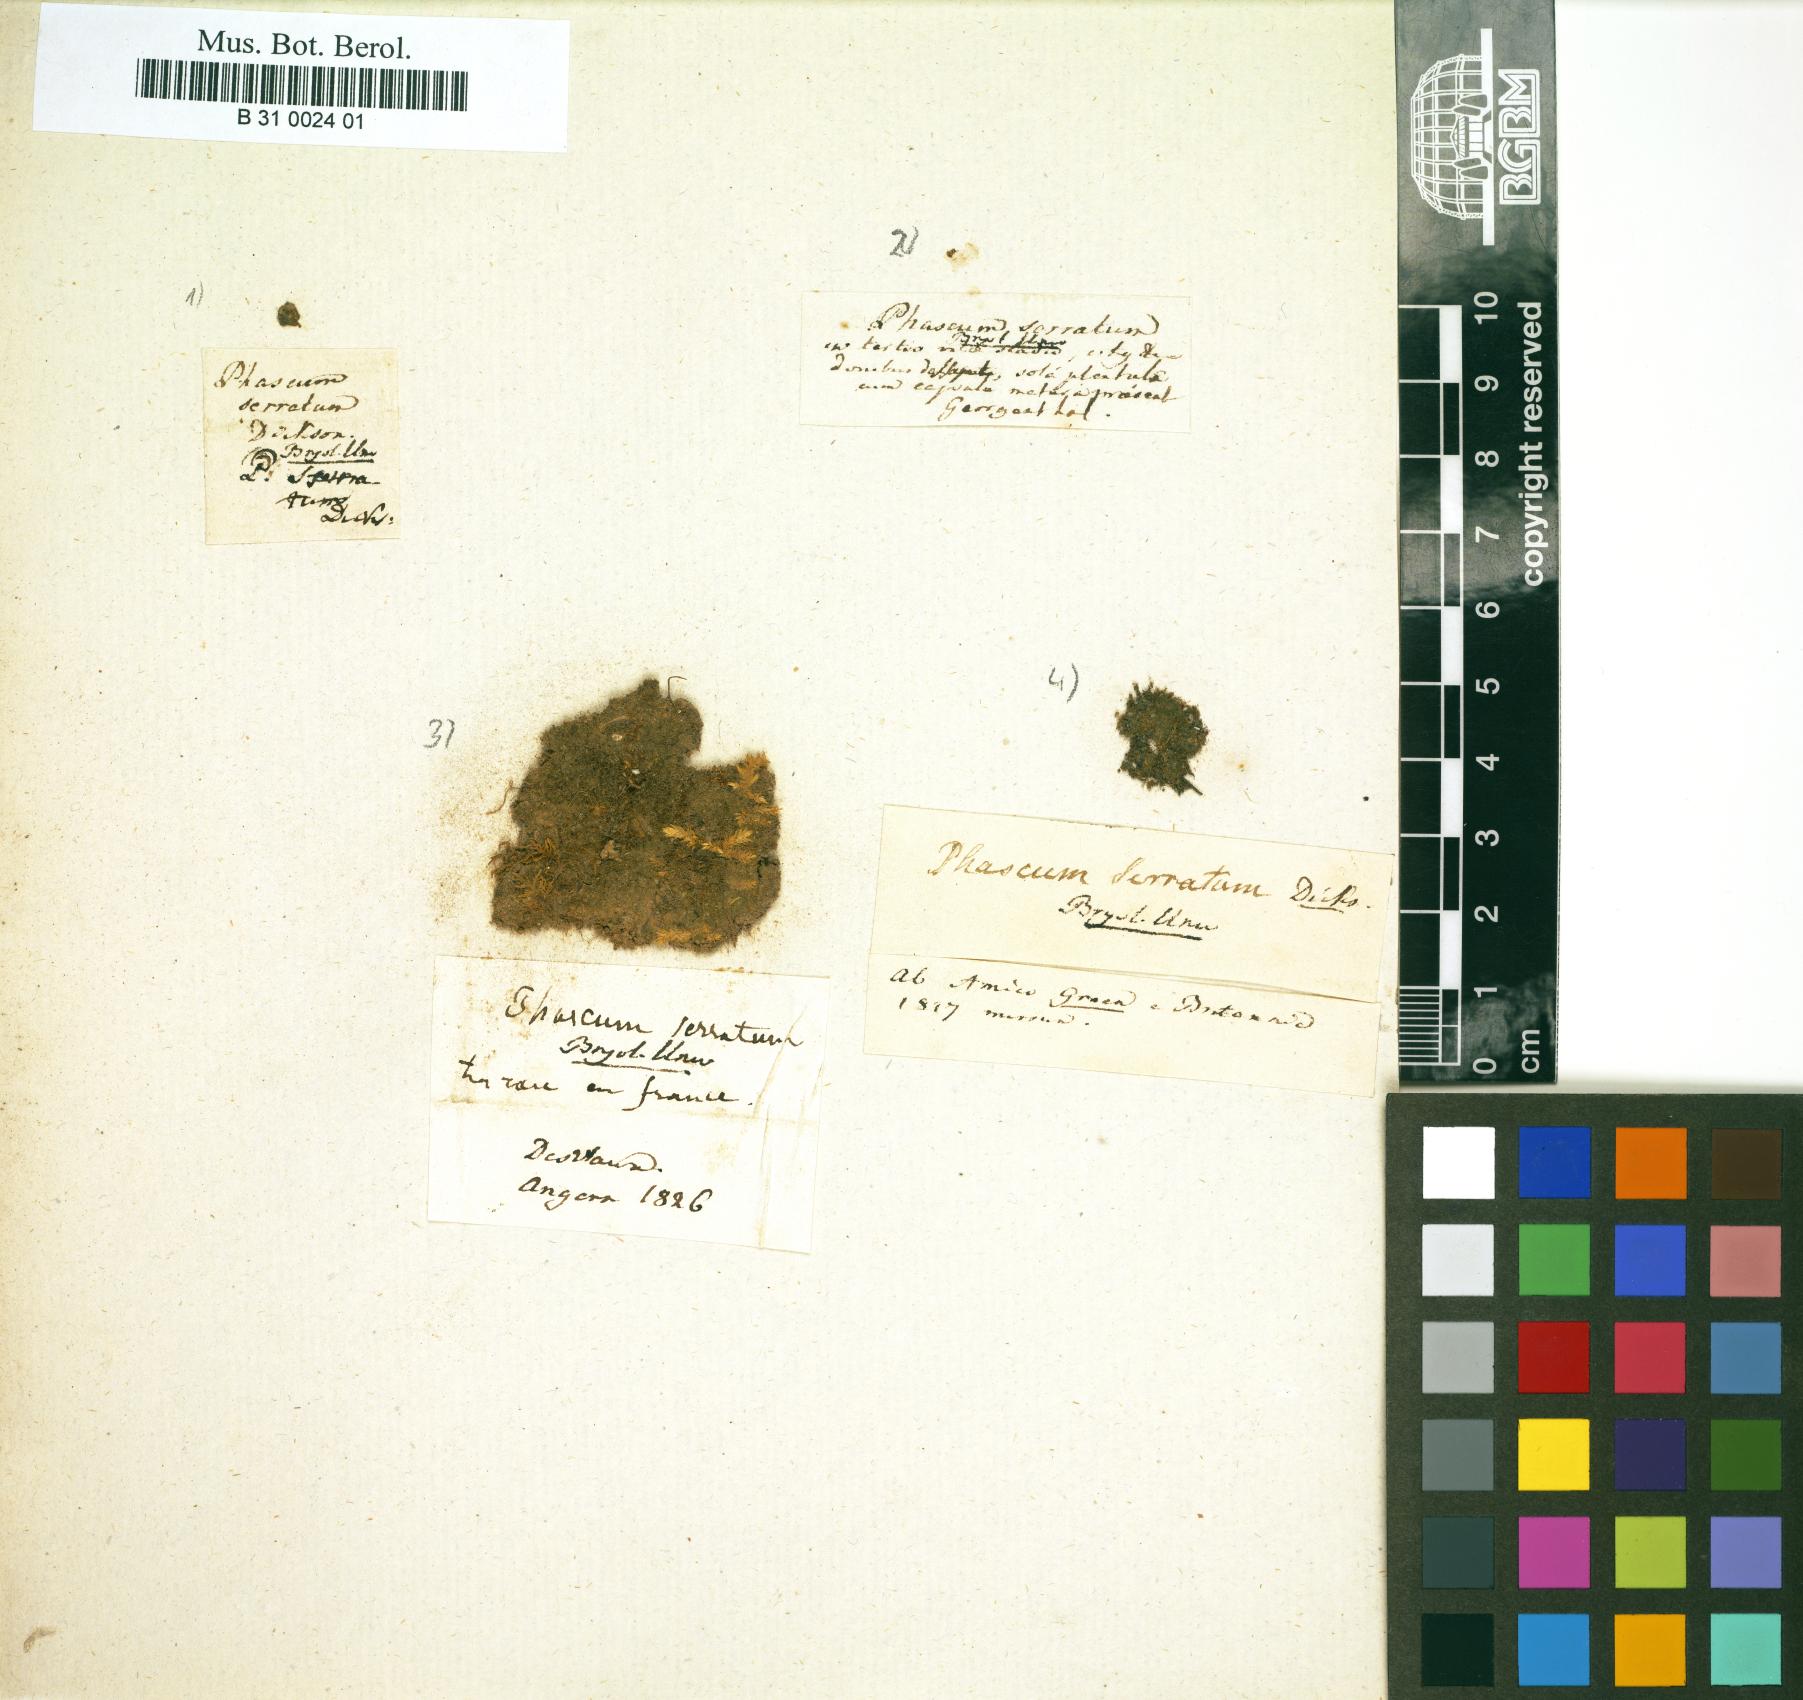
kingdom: Plantae
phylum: Bryophyta
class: Bryopsida
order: Pottiales
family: Ephemeraceae
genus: Ephemerum
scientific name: Ephemerum serratum
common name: Serrated earth moss
